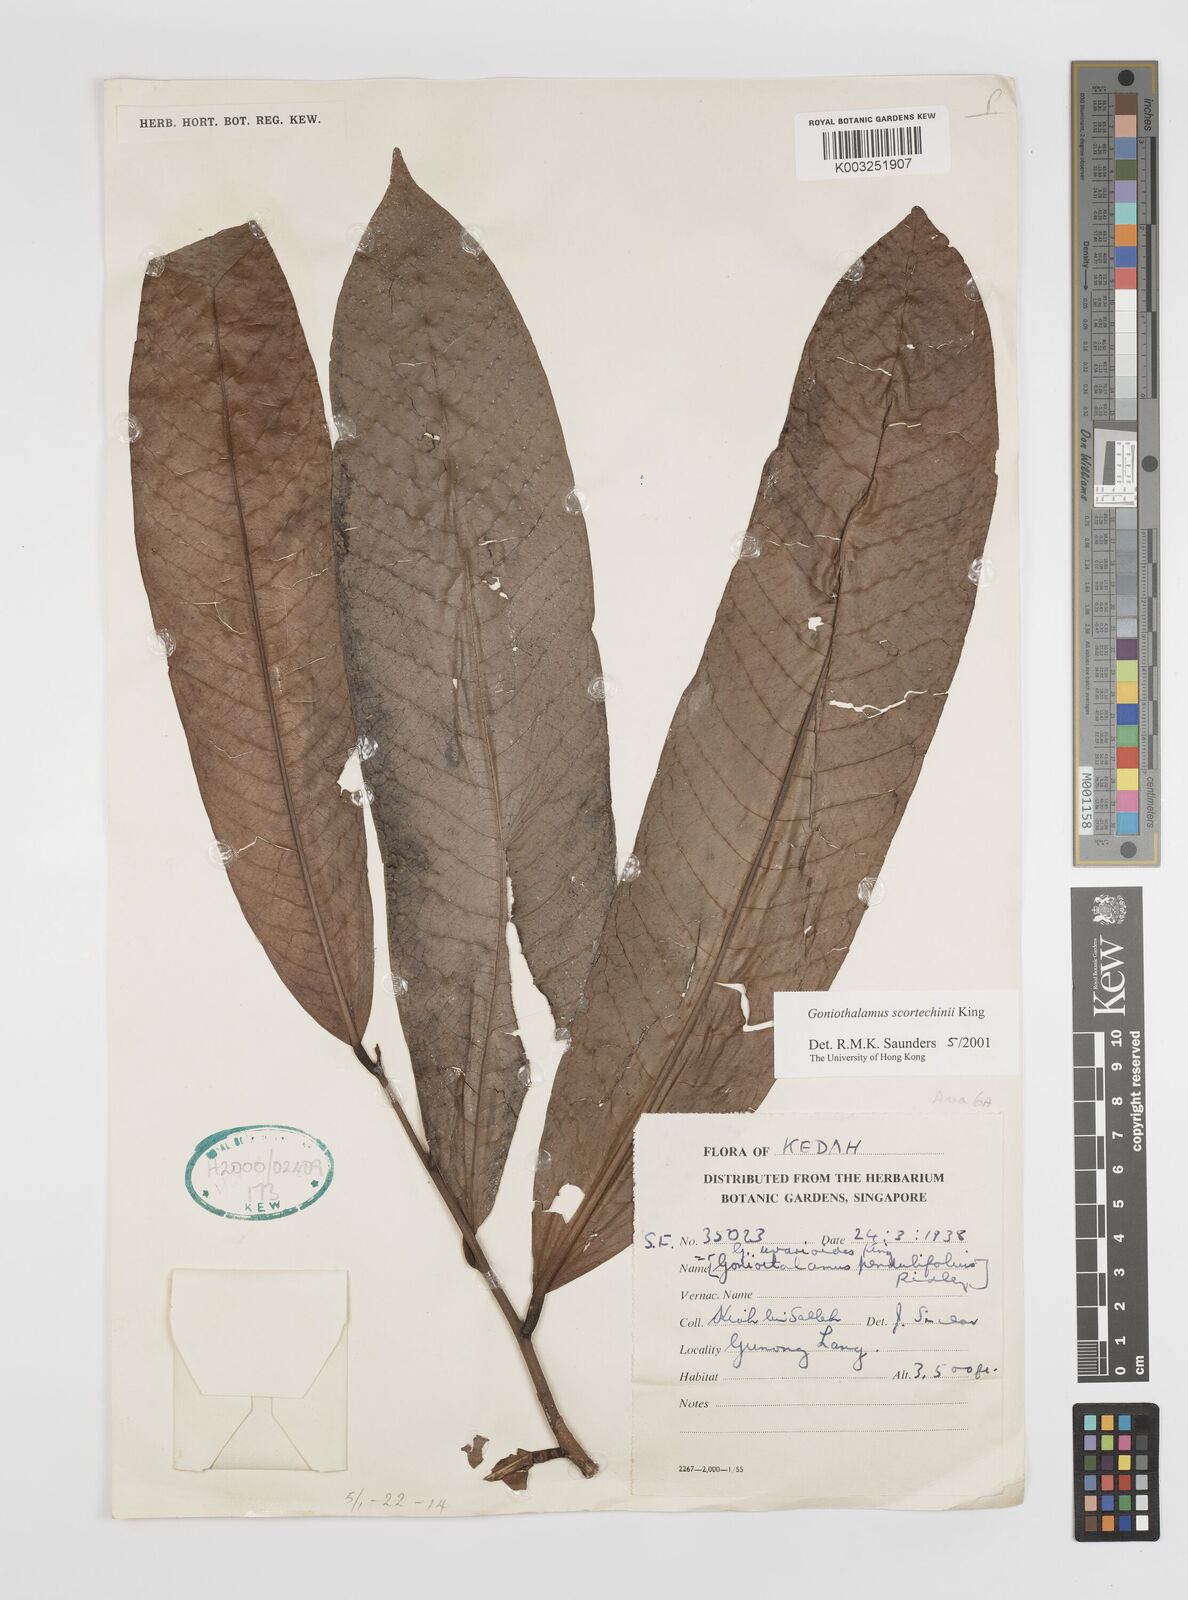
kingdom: Plantae
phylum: Tracheophyta
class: Magnoliopsida
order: Magnoliales
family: Annonaceae
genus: Goniothalamus
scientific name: Goniothalamus scortechinii
